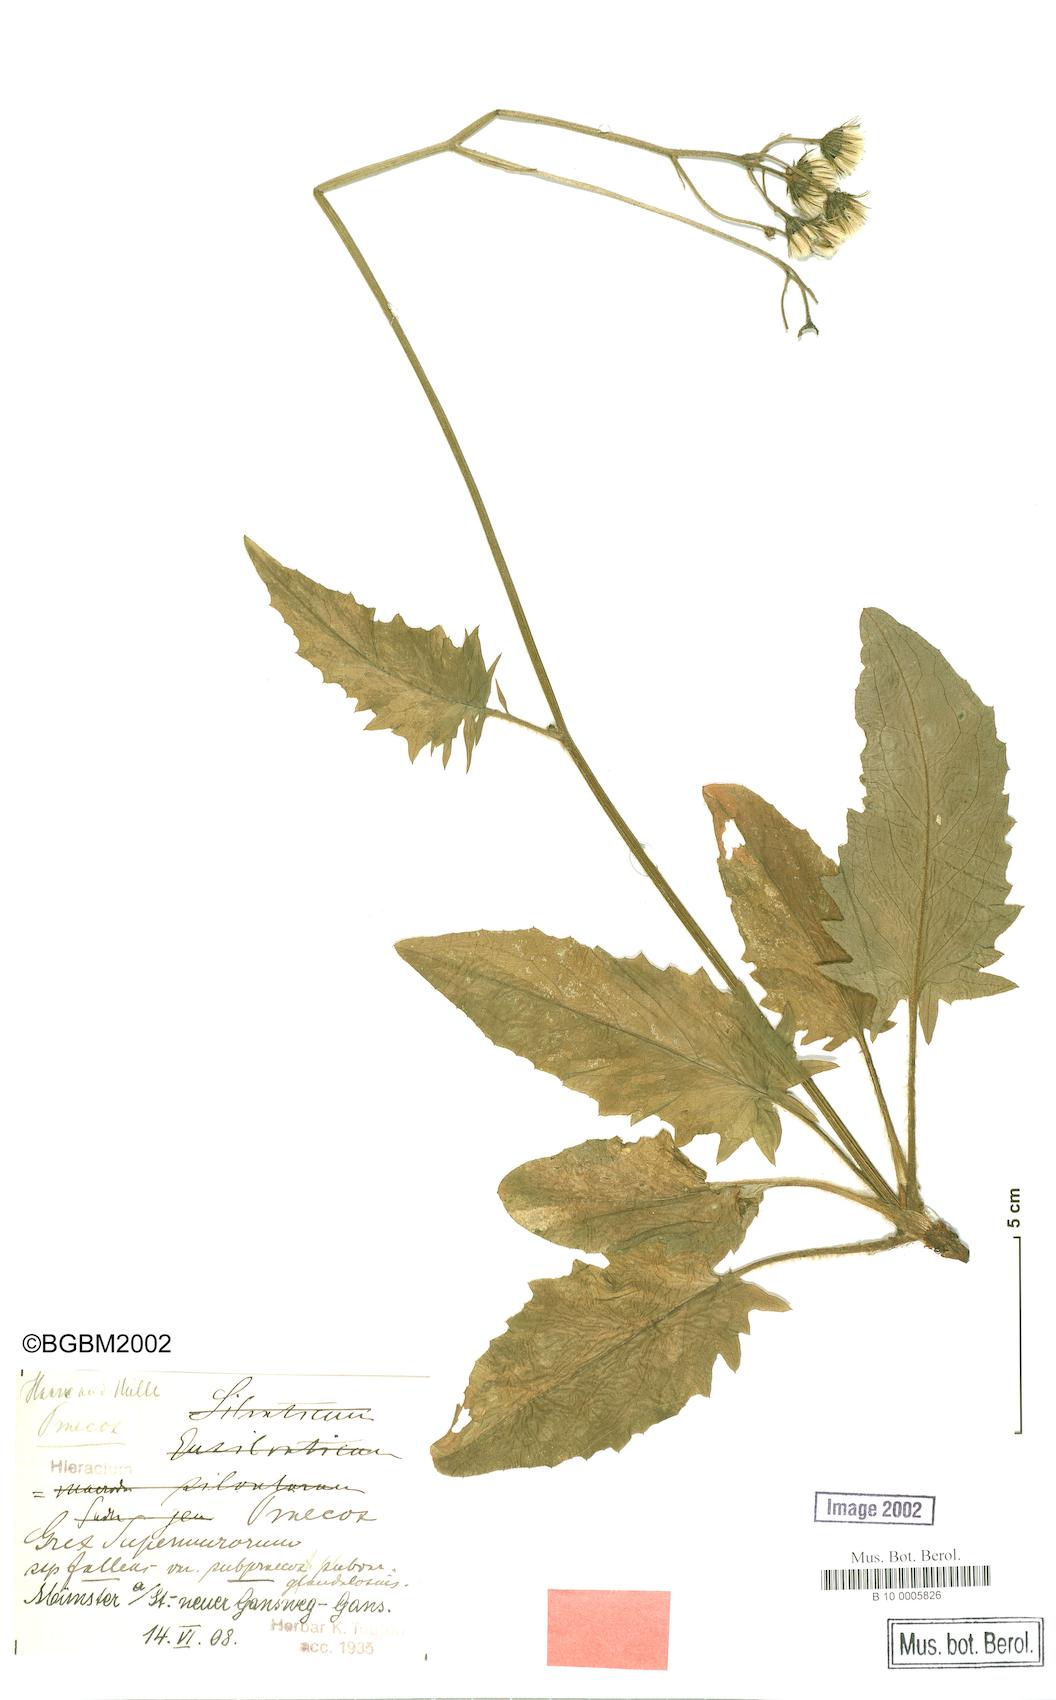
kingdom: Plantae
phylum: Tracheophyta
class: Magnoliopsida
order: Asterales
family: Asteraceae
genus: Hieracium
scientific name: Hieracium praecox
